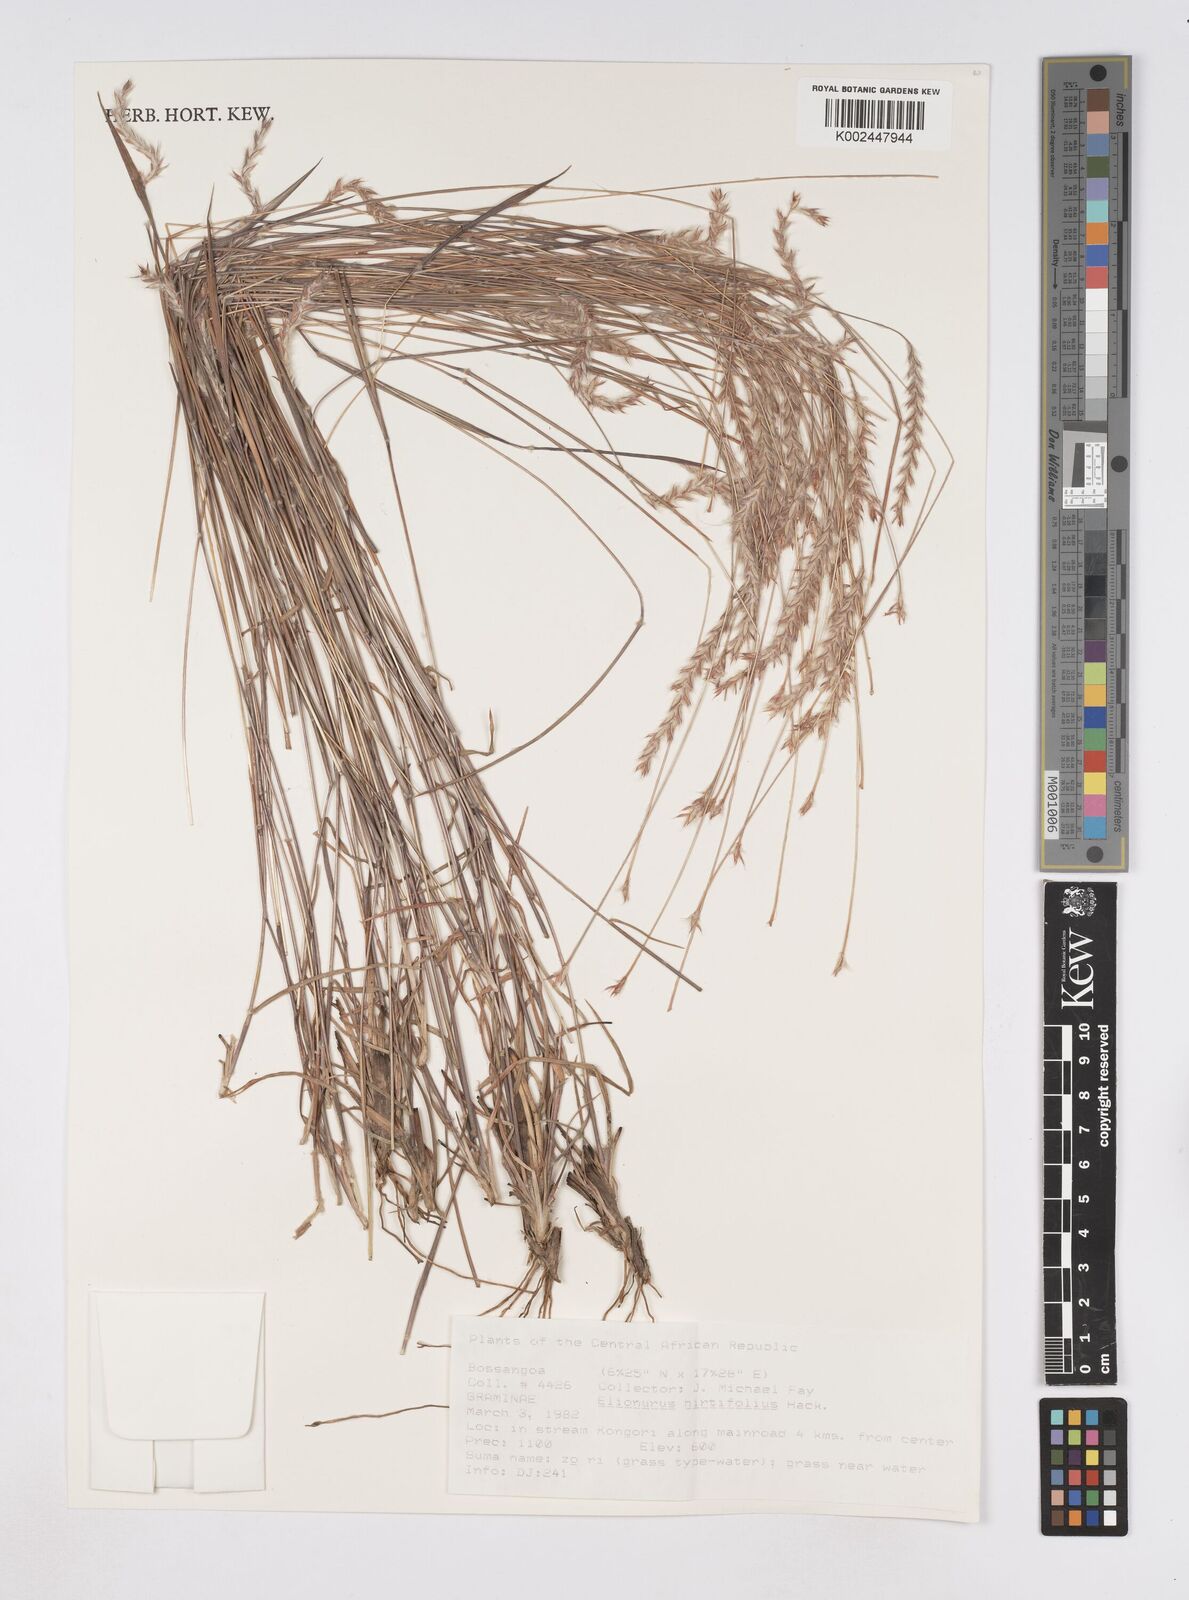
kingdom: Plantae
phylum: Tracheophyta
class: Liliopsida
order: Poales
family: Poaceae
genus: Elionurus
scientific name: Elionurus hirtifolius
